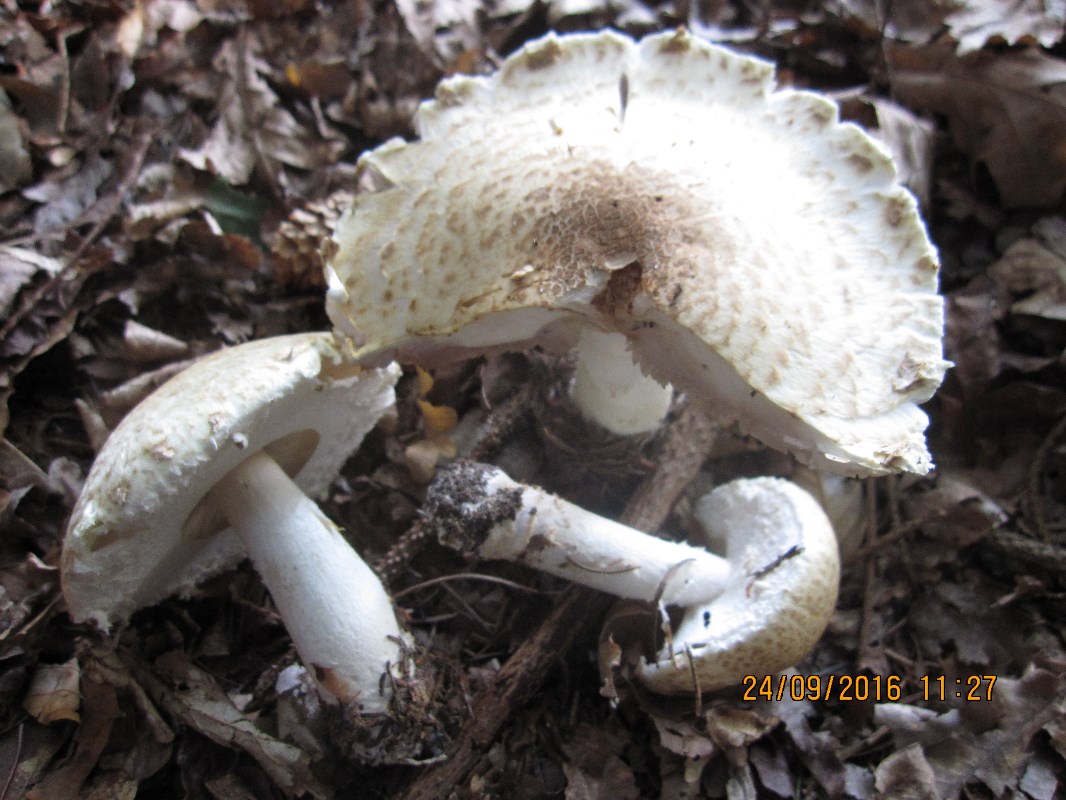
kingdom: Fungi
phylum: Basidiomycota
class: Agaricomycetes
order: Agaricales
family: Agaricaceae
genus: Agaricus
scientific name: Agaricus augustus
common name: prægtig champignon
